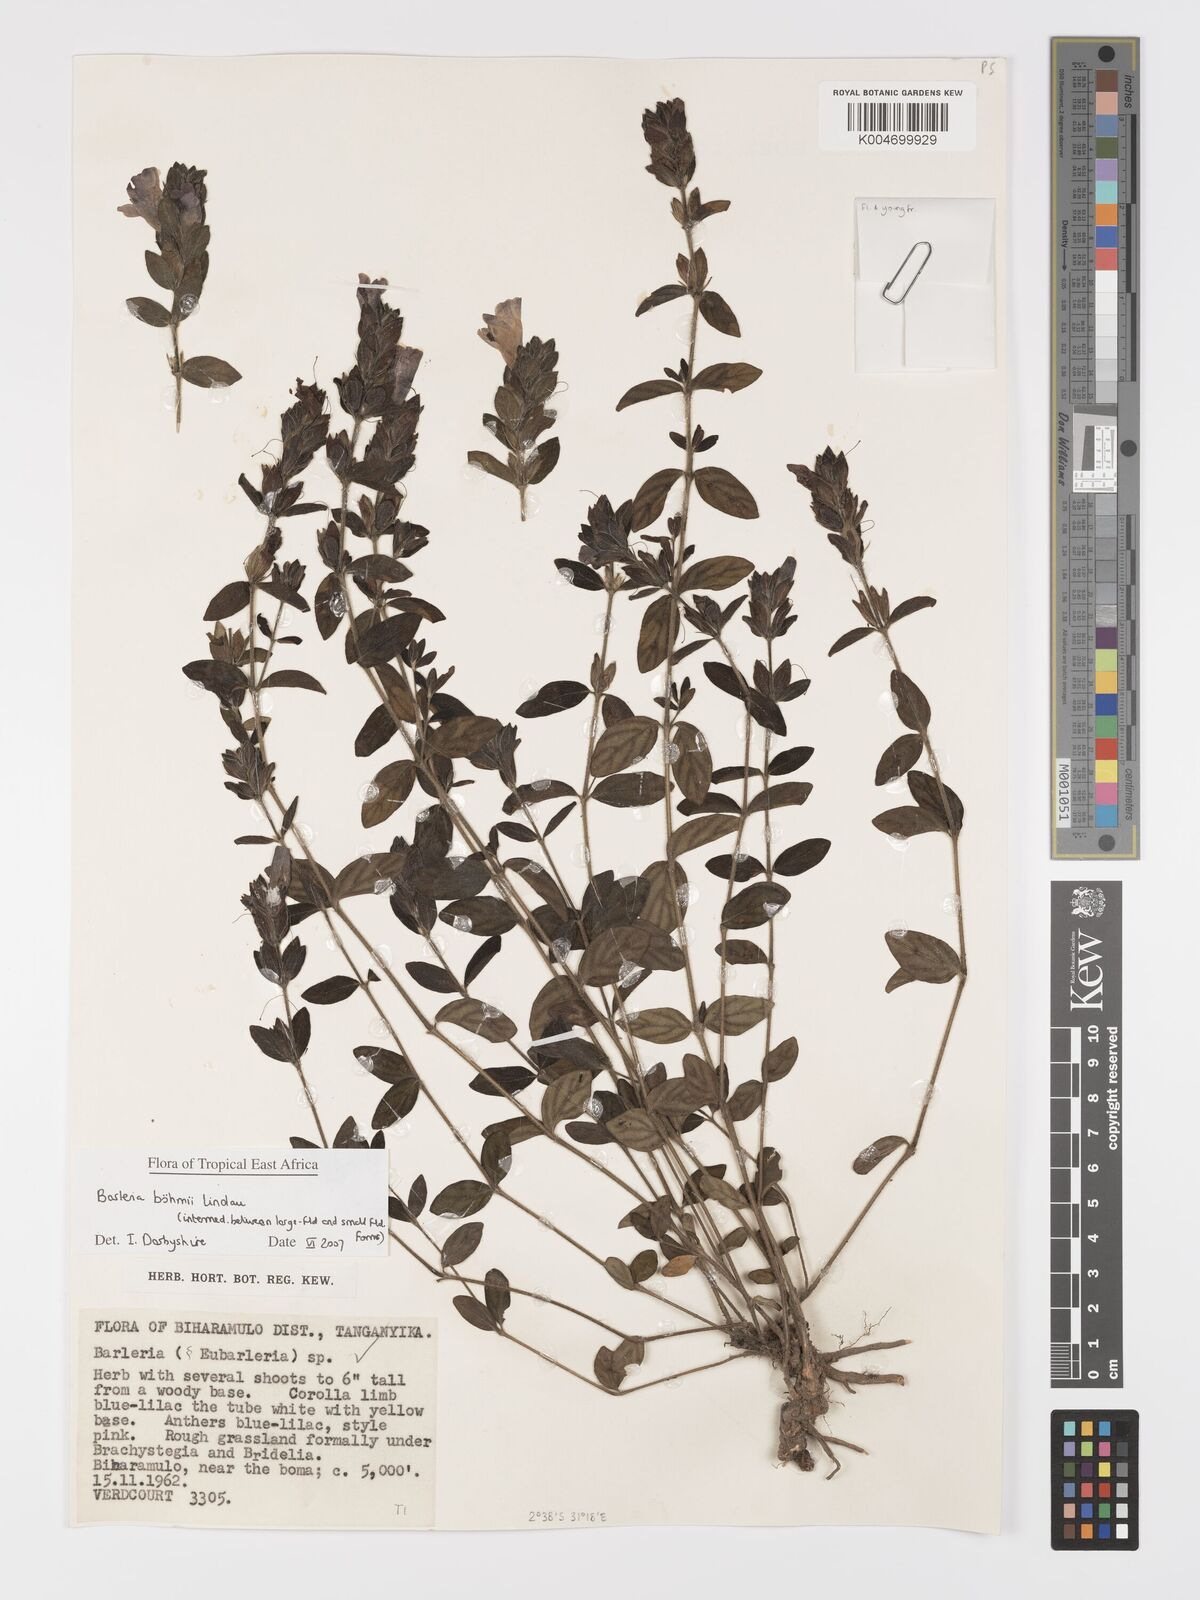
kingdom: Plantae
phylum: Tracheophyta
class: Magnoliopsida
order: Lamiales
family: Acanthaceae
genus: Barleria
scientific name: Barleria boehmii
